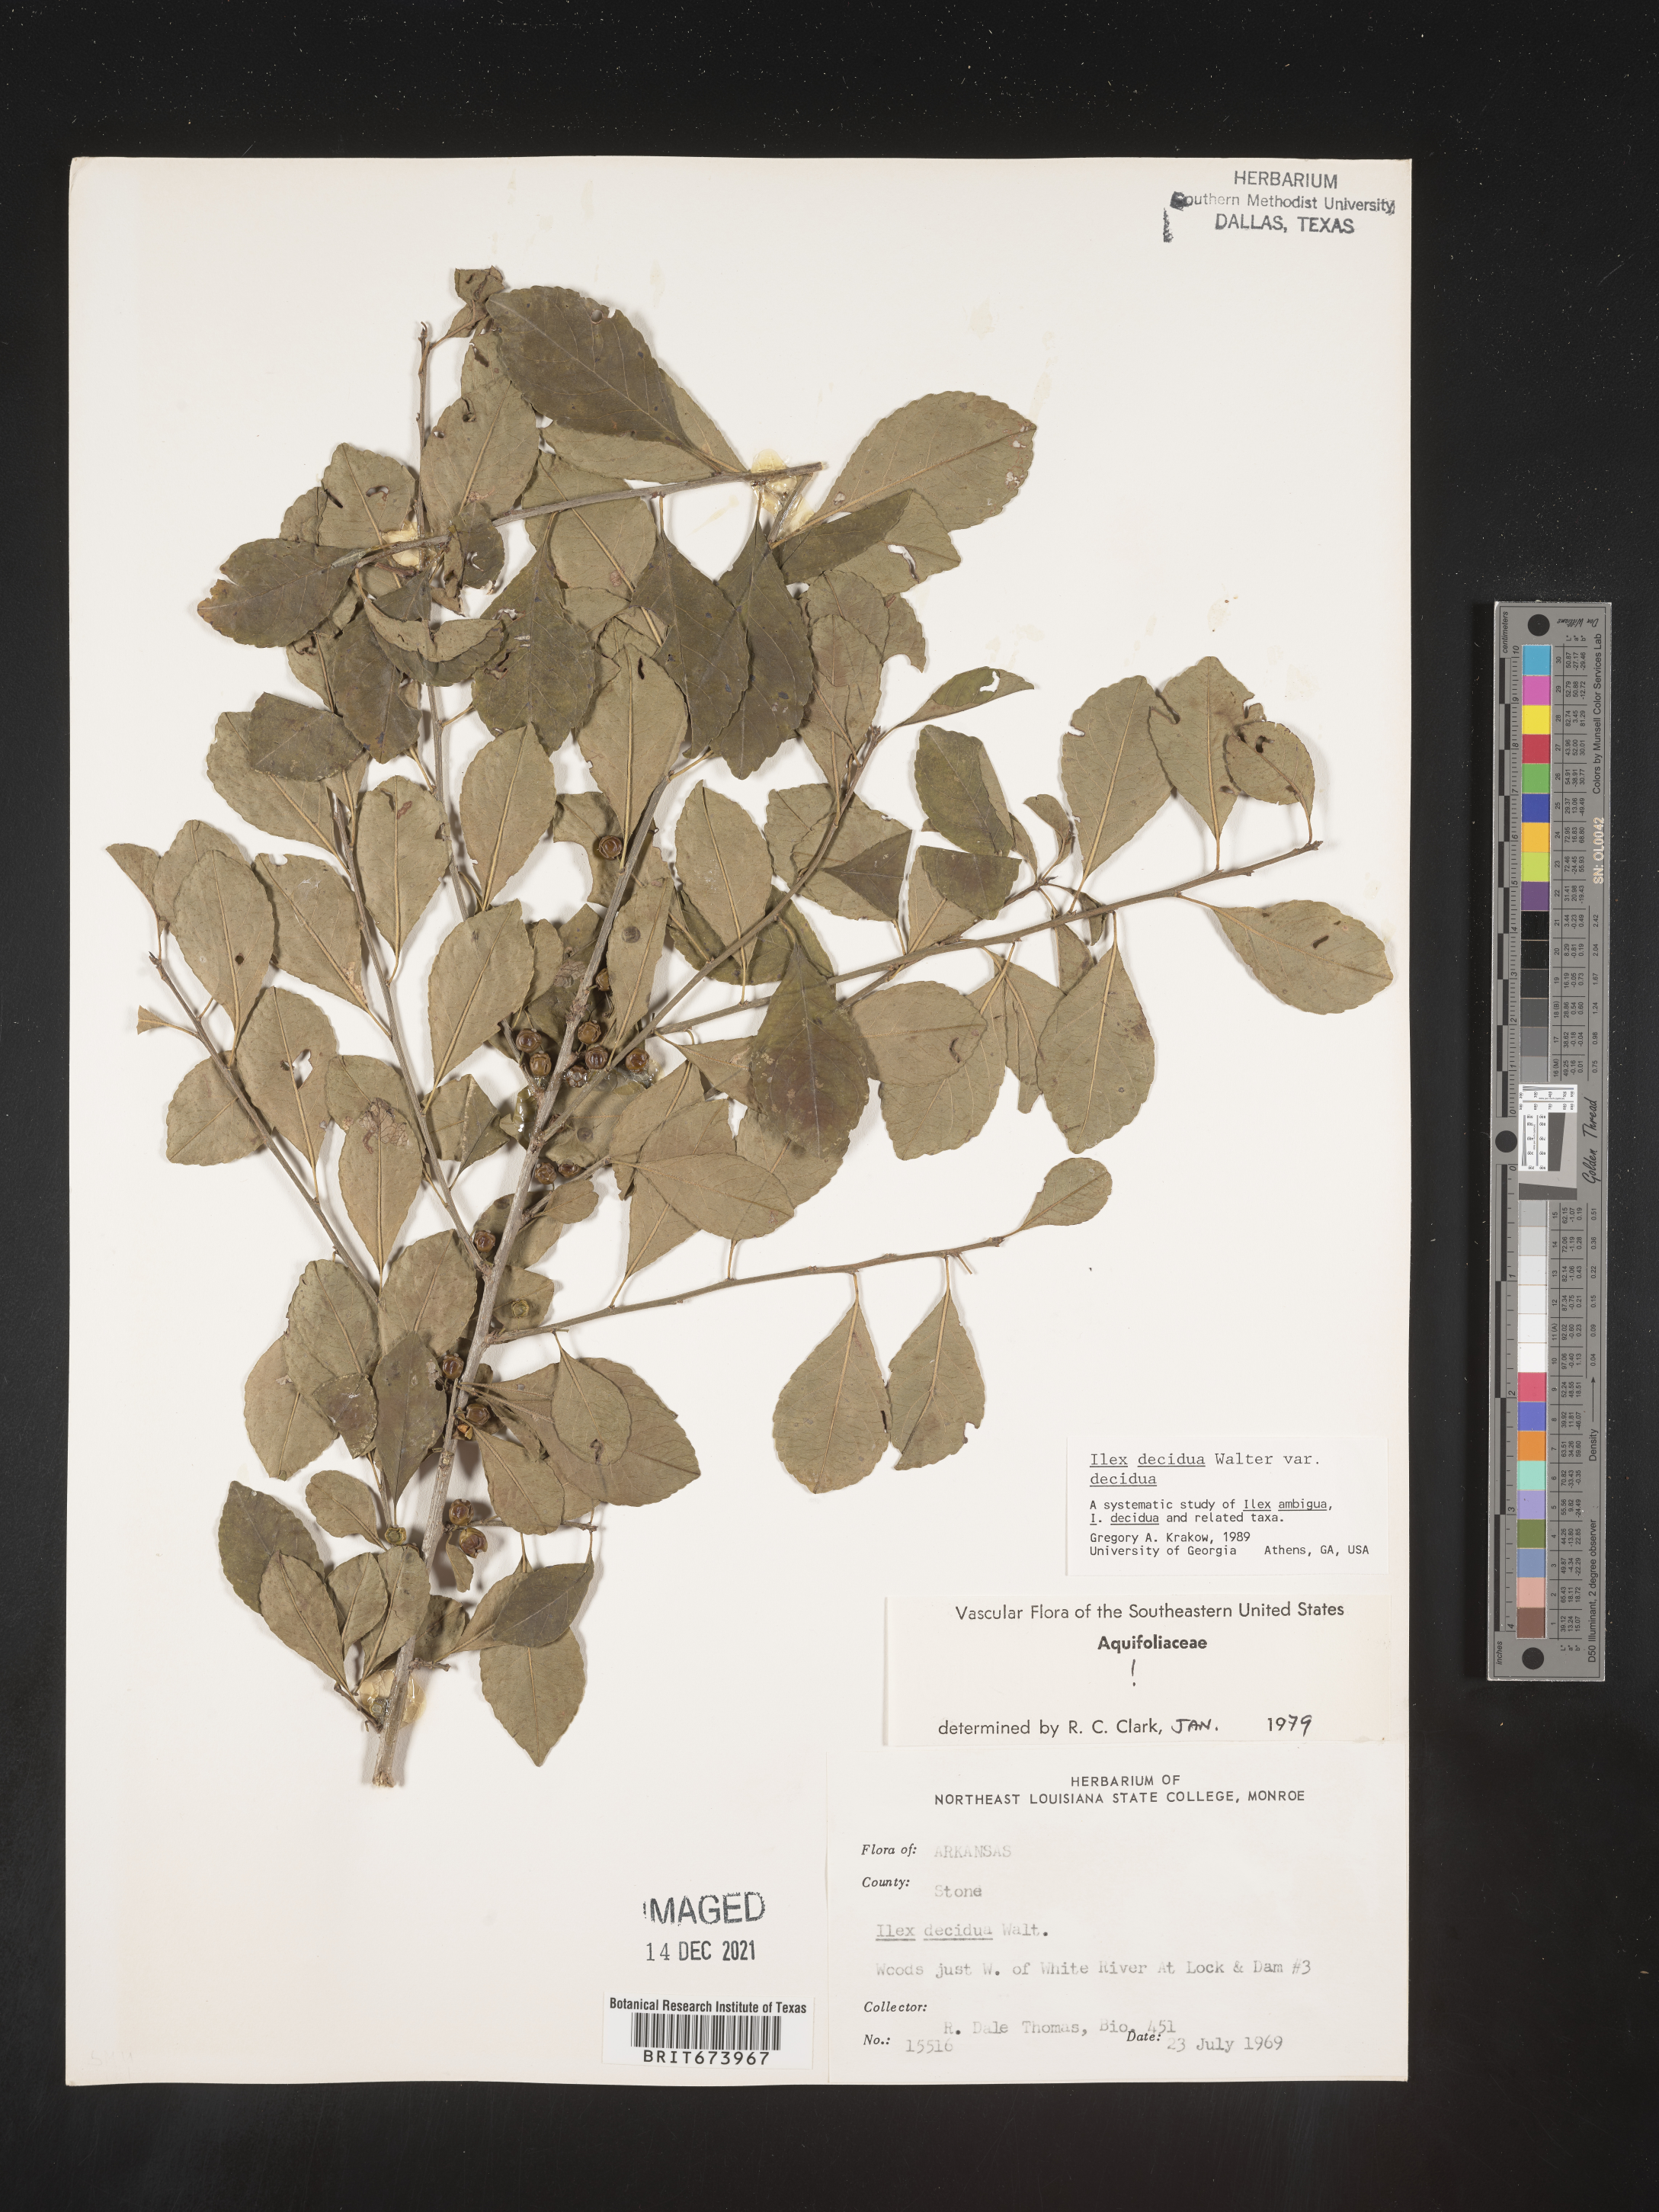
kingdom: Plantae
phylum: Tracheophyta
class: Magnoliopsida
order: Aquifoliales
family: Aquifoliaceae
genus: Ilex
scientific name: Ilex decidua
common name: Possum-haw
